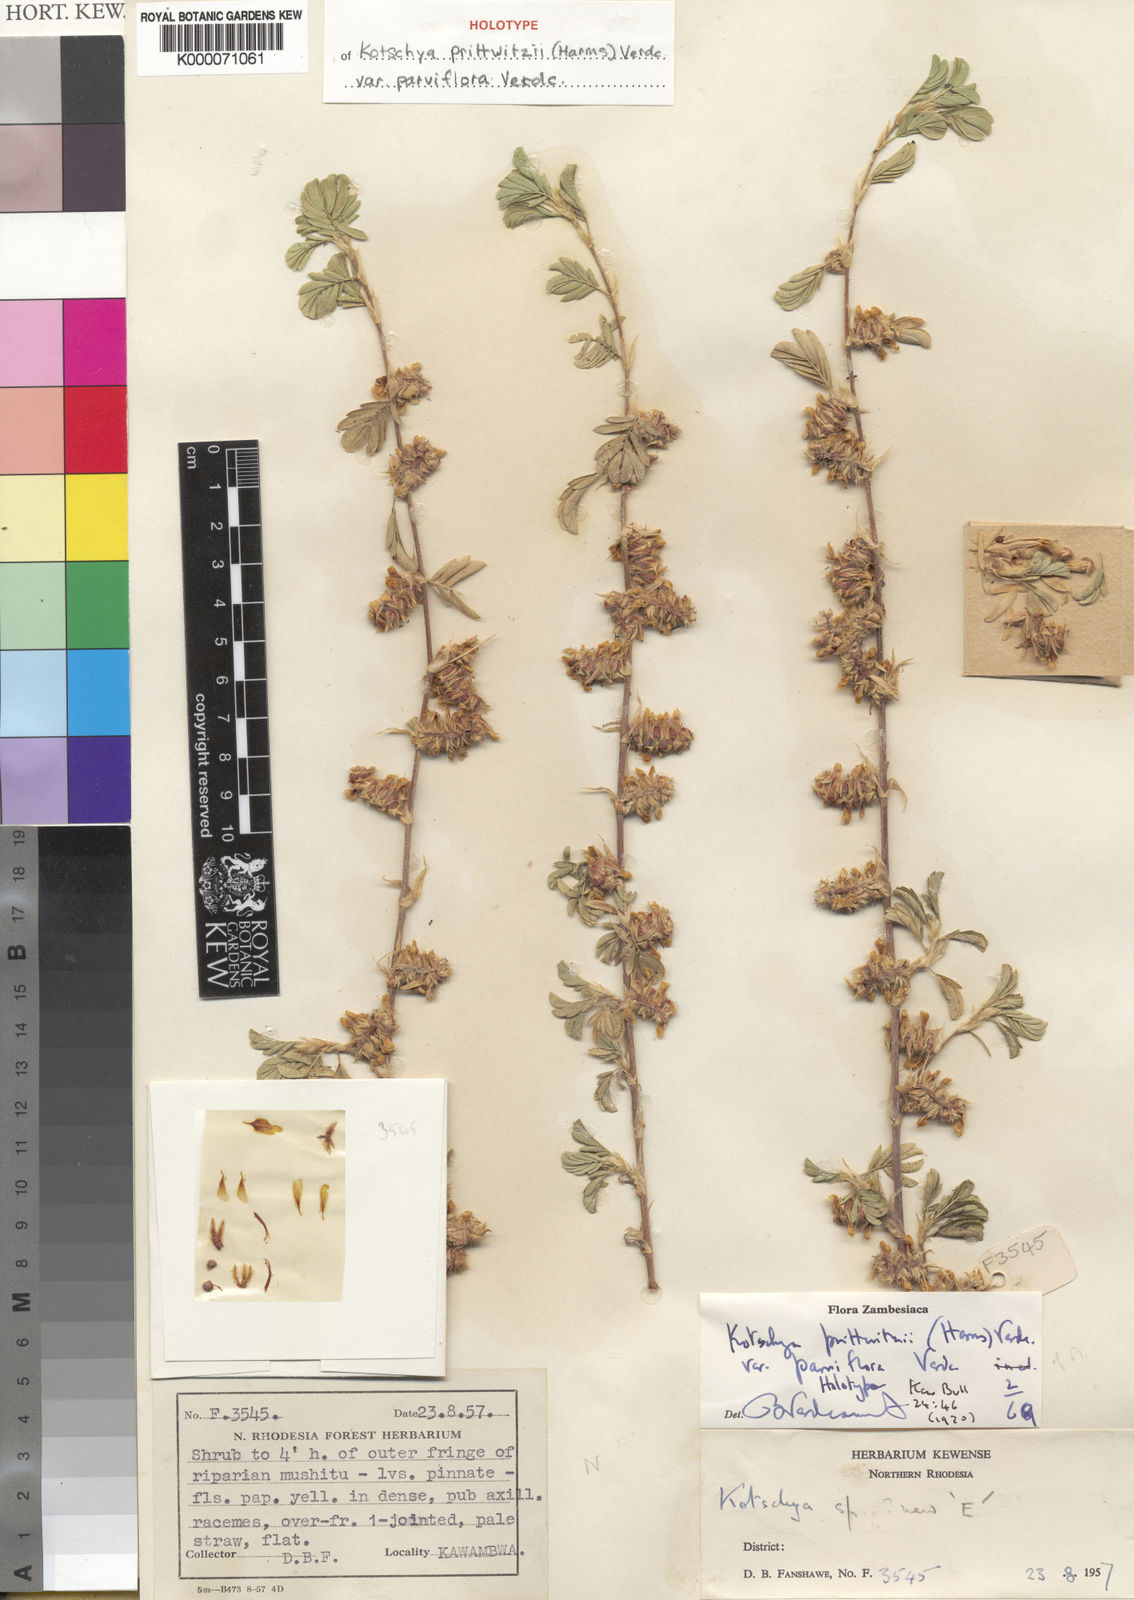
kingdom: Plantae
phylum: Tracheophyta
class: Magnoliopsida
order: Fabales
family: Fabaceae
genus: Kotschya
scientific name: Kotschya prittwitzii
